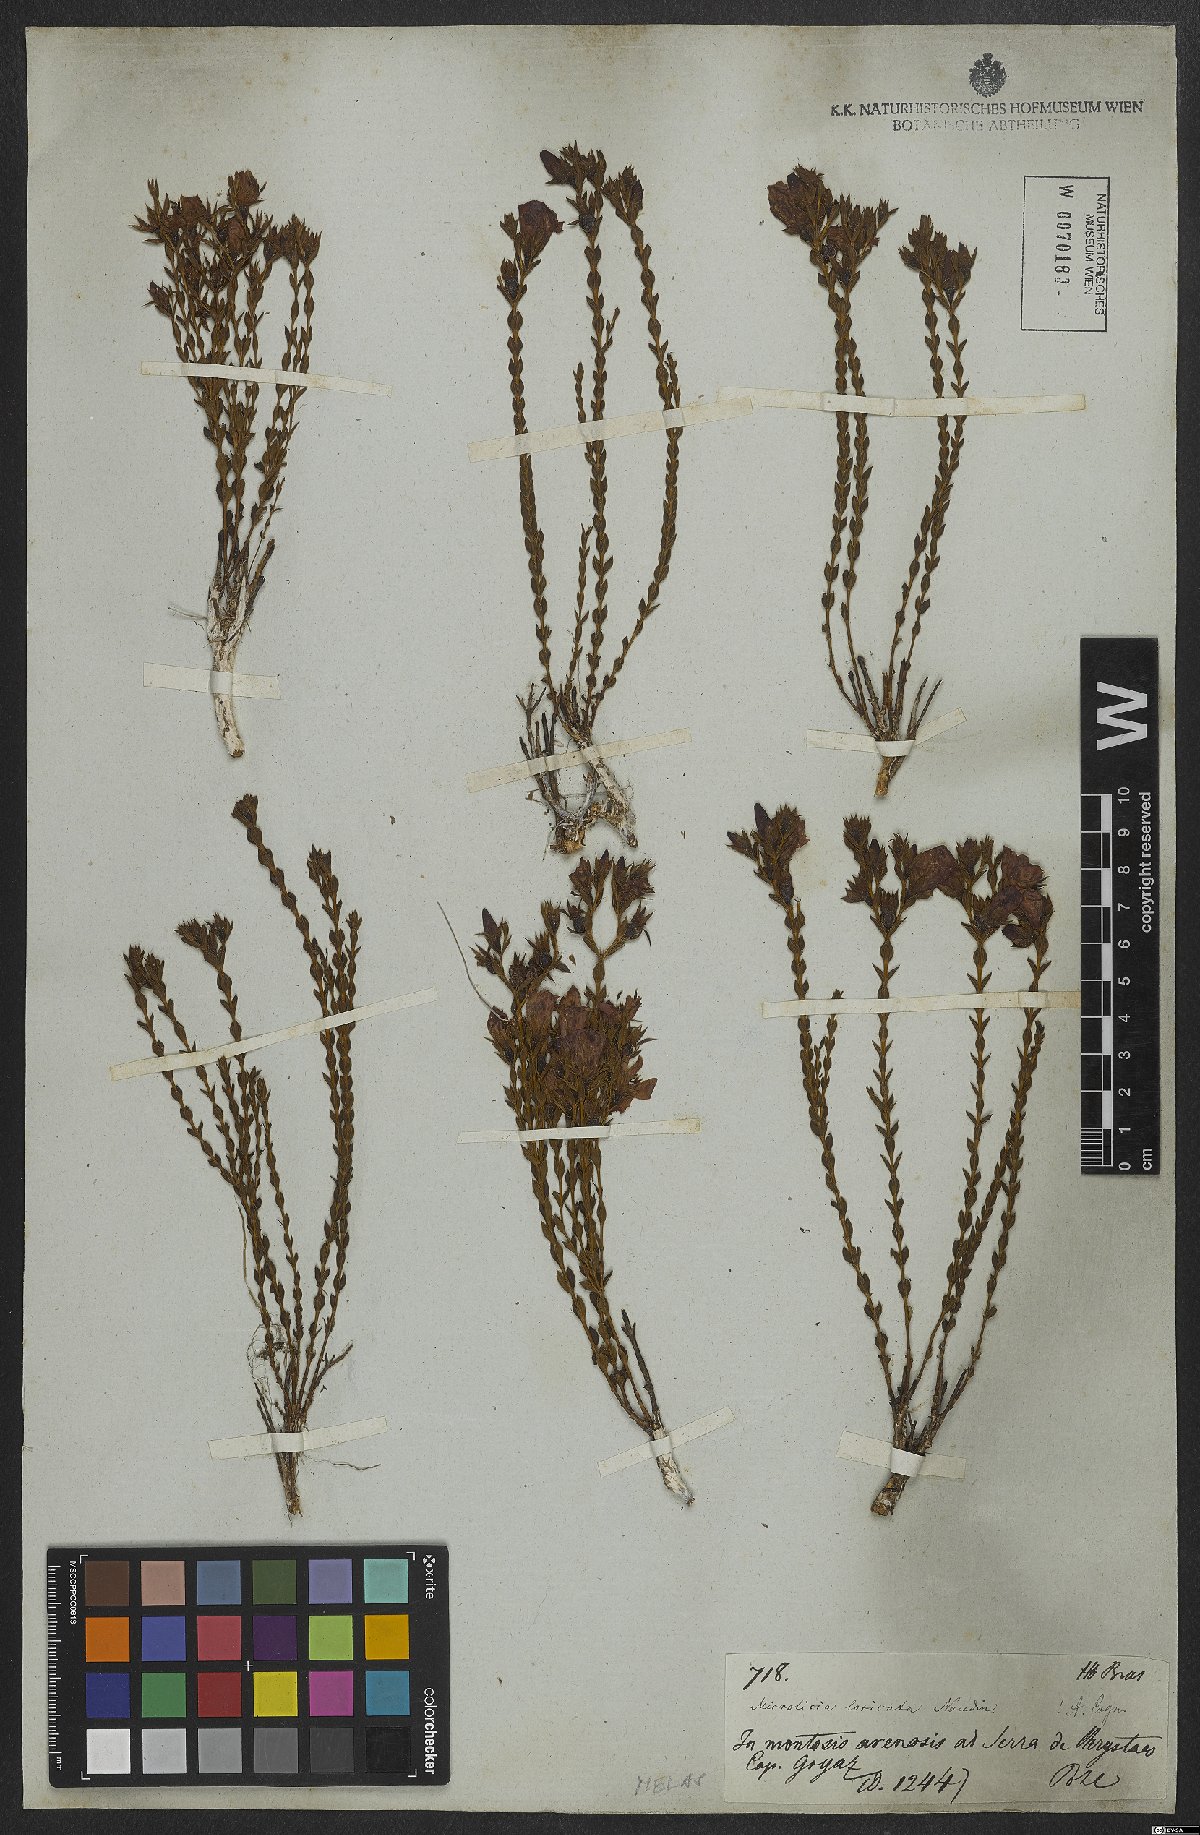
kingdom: Plantae
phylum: Tracheophyta
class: Magnoliopsida
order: Myrtales
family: Melastomataceae
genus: Microlicia
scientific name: Microlicia viminalis
